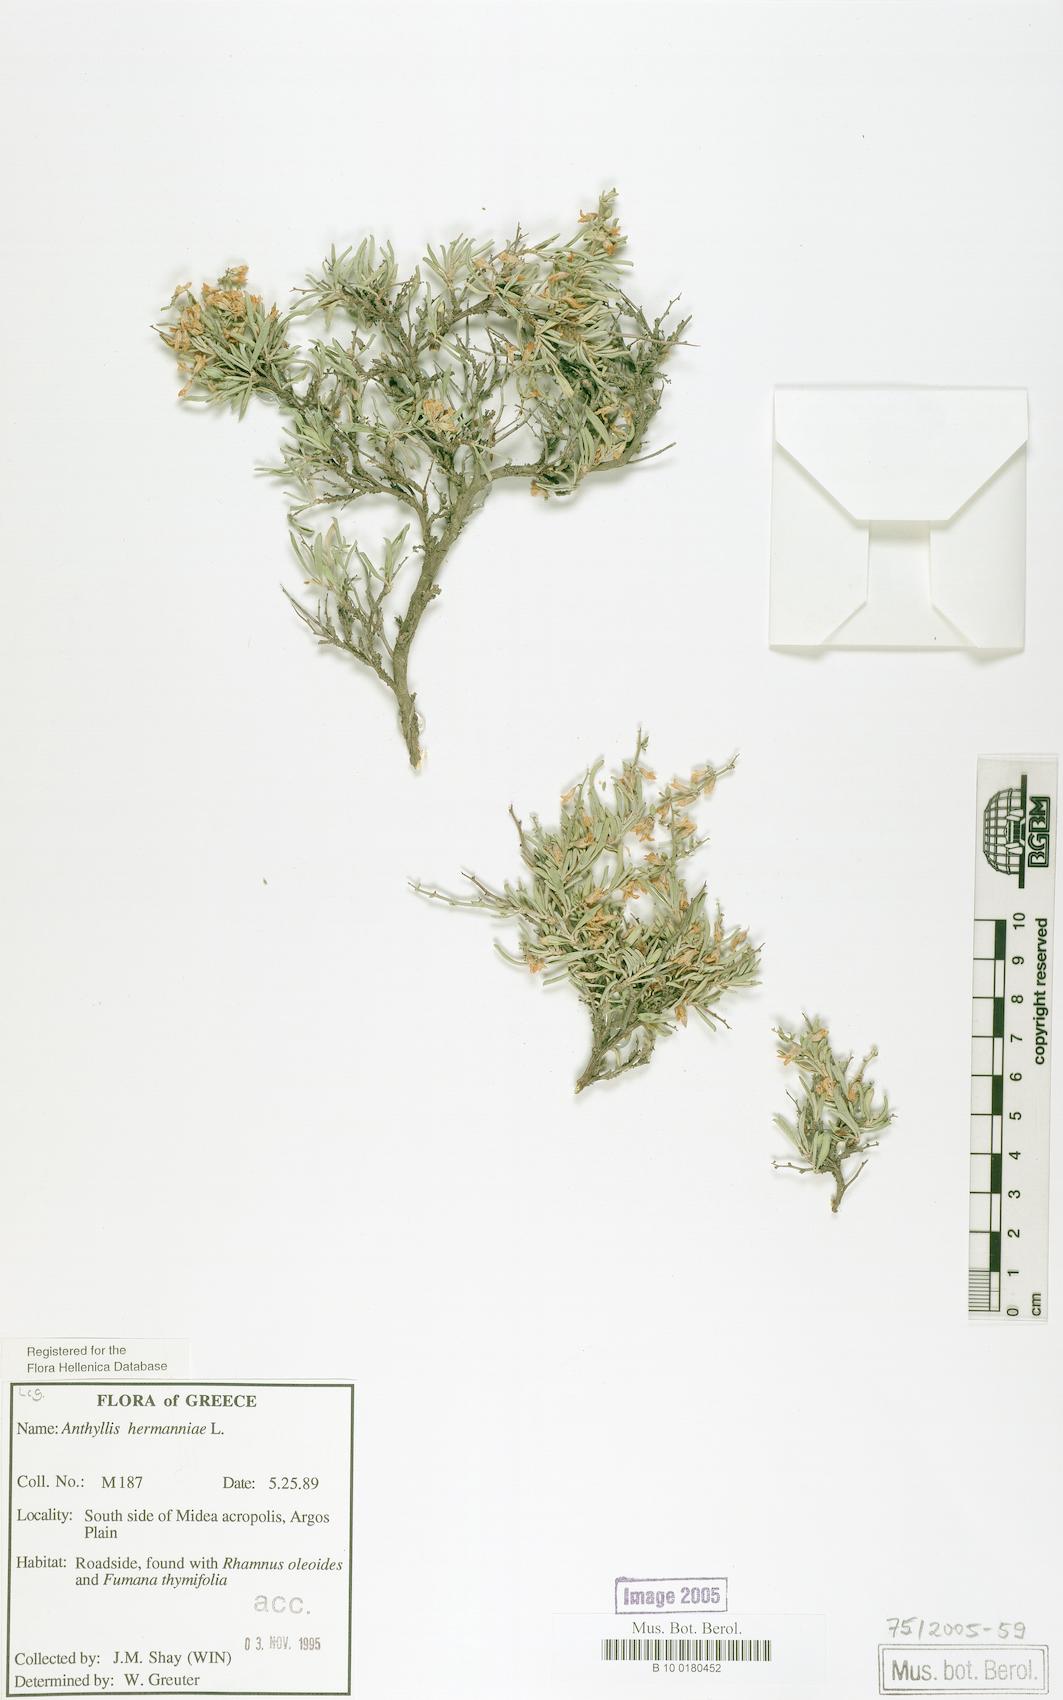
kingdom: Plantae
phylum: Tracheophyta
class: Magnoliopsida
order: Fabales
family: Fabaceae
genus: Anthyllis
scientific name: Anthyllis hermanniae
